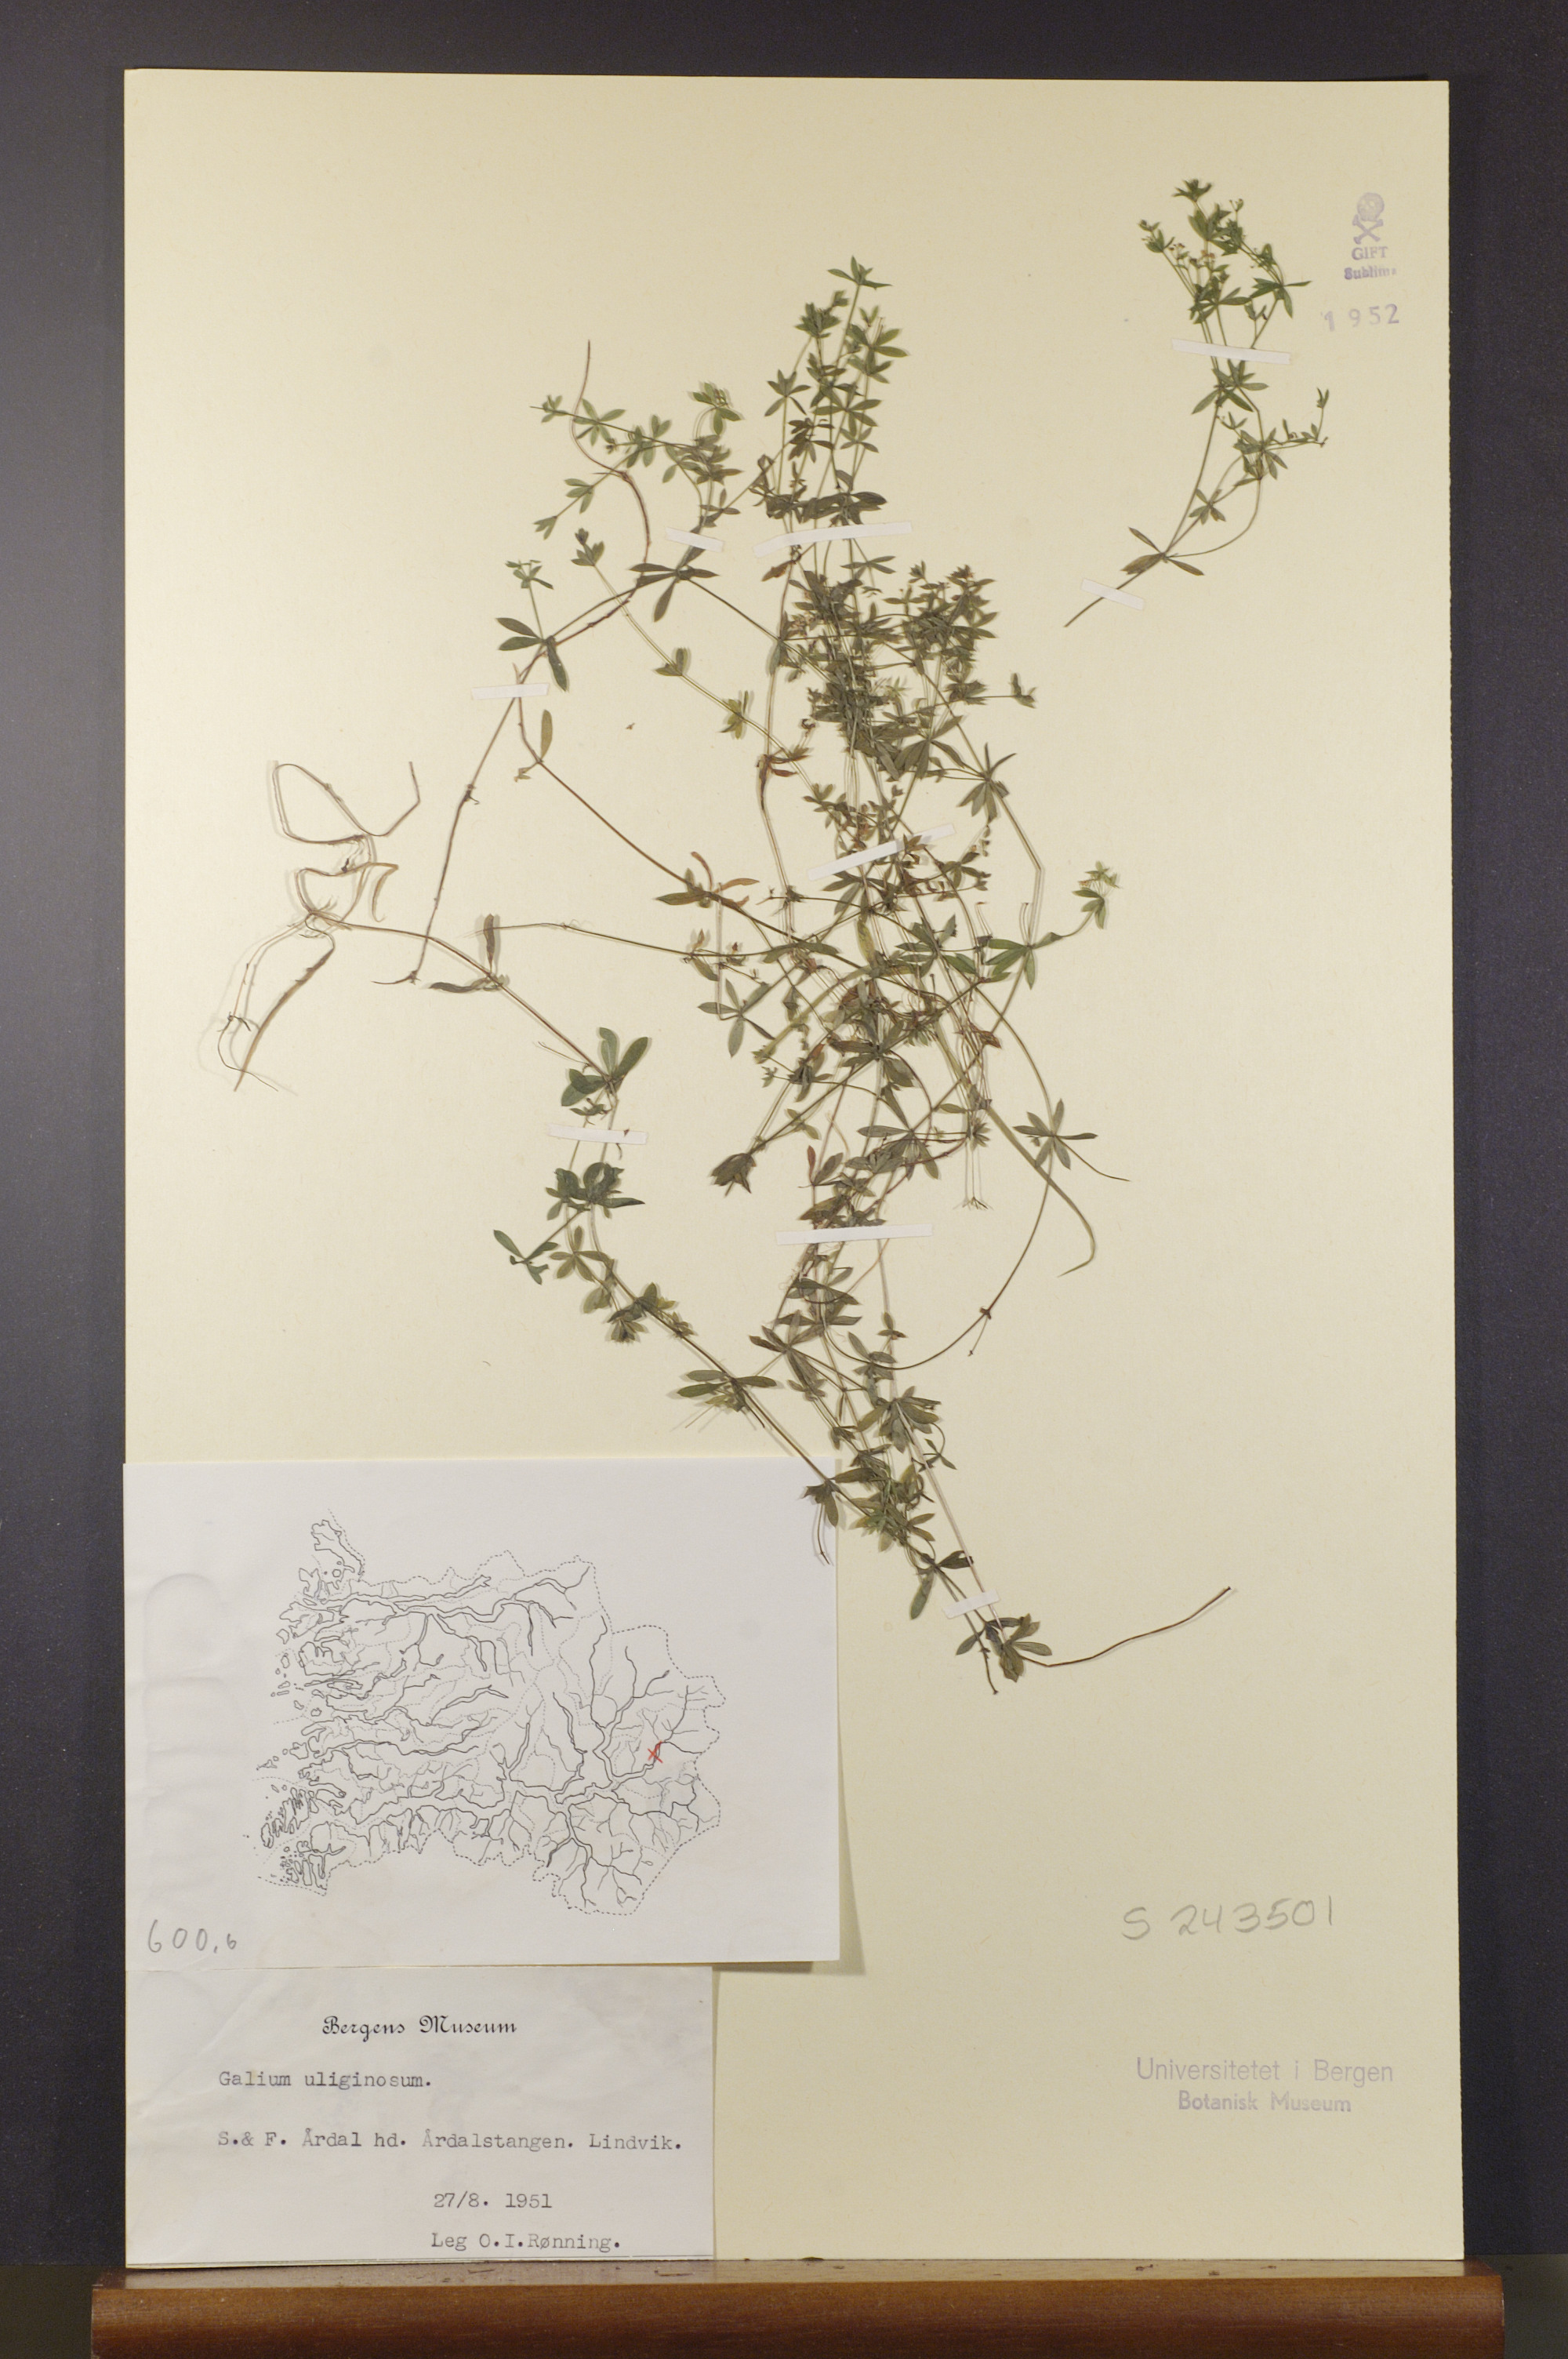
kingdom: Plantae
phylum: Tracheophyta
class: Magnoliopsida
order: Gentianales
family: Rubiaceae
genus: Galium
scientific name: Galium uliginosum
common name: Fen bedstraw
